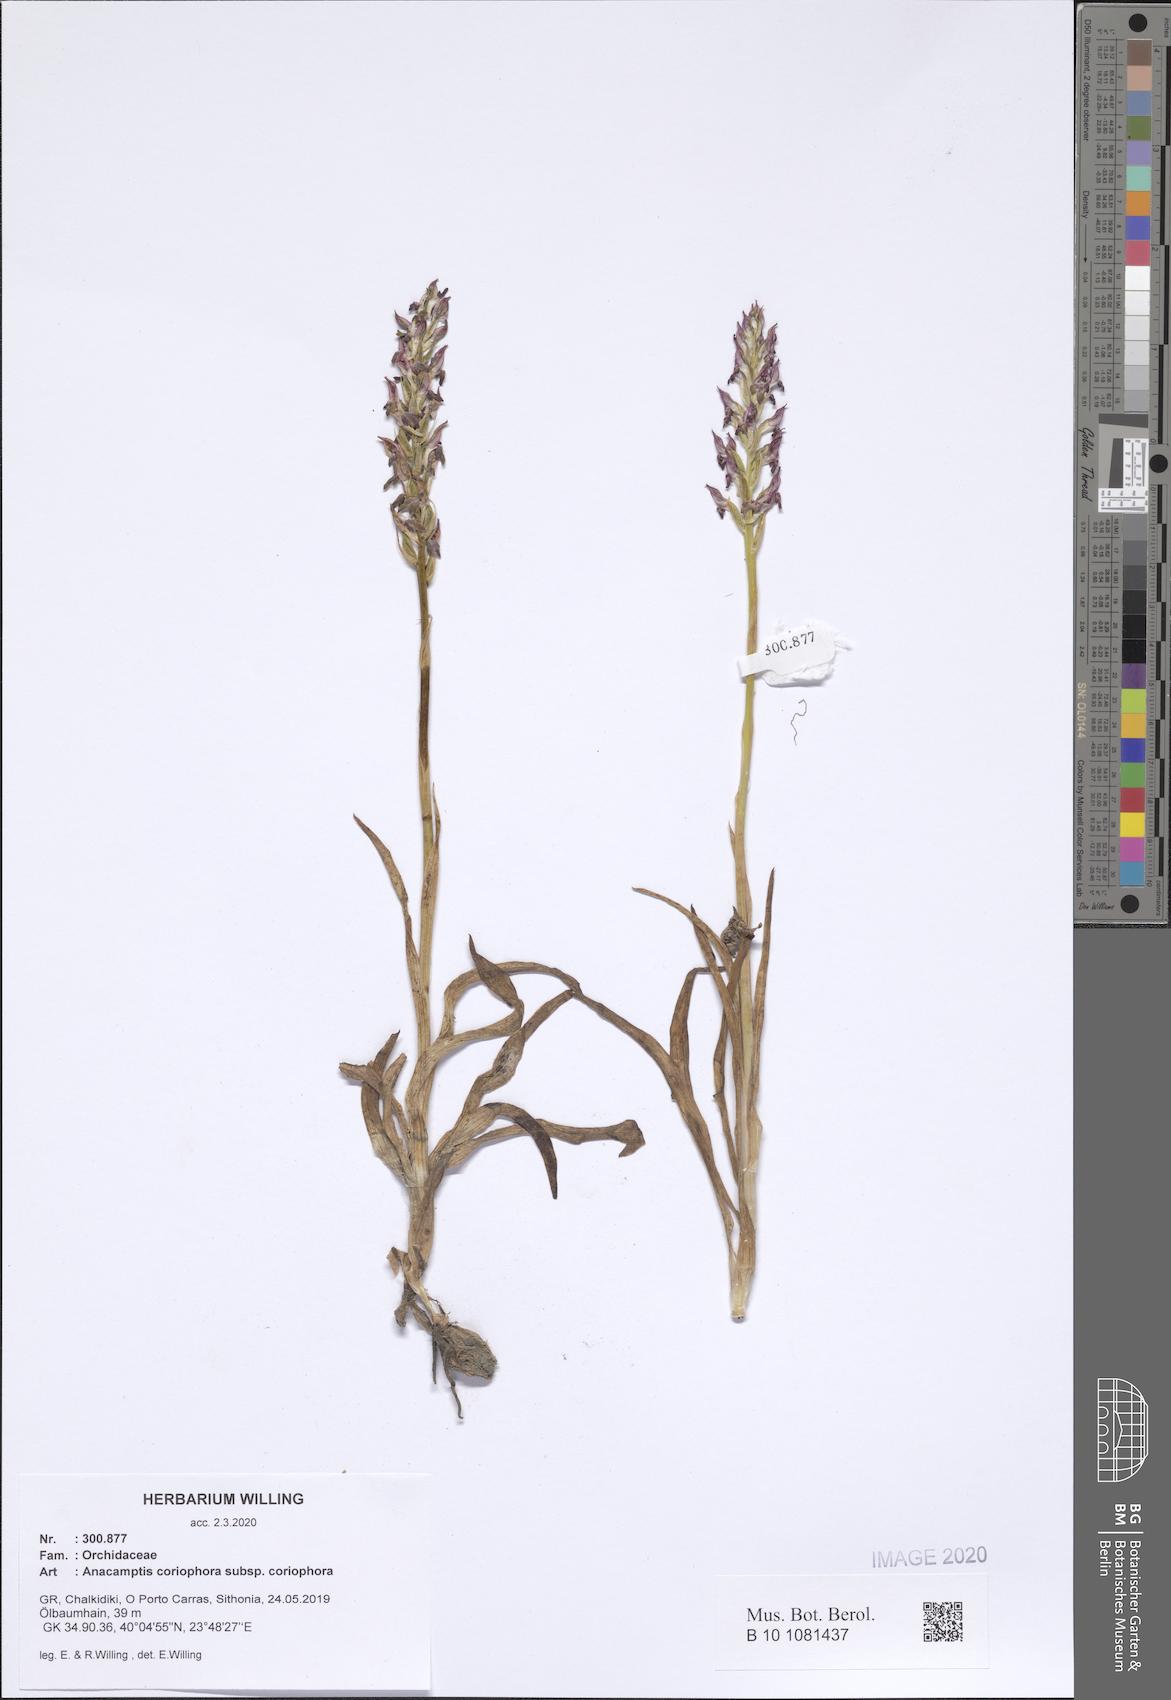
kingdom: Plantae
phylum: Tracheophyta
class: Liliopsida
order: Asparagales
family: Orchidaceae
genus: Anacamptis
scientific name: Anacamptis coriophora
